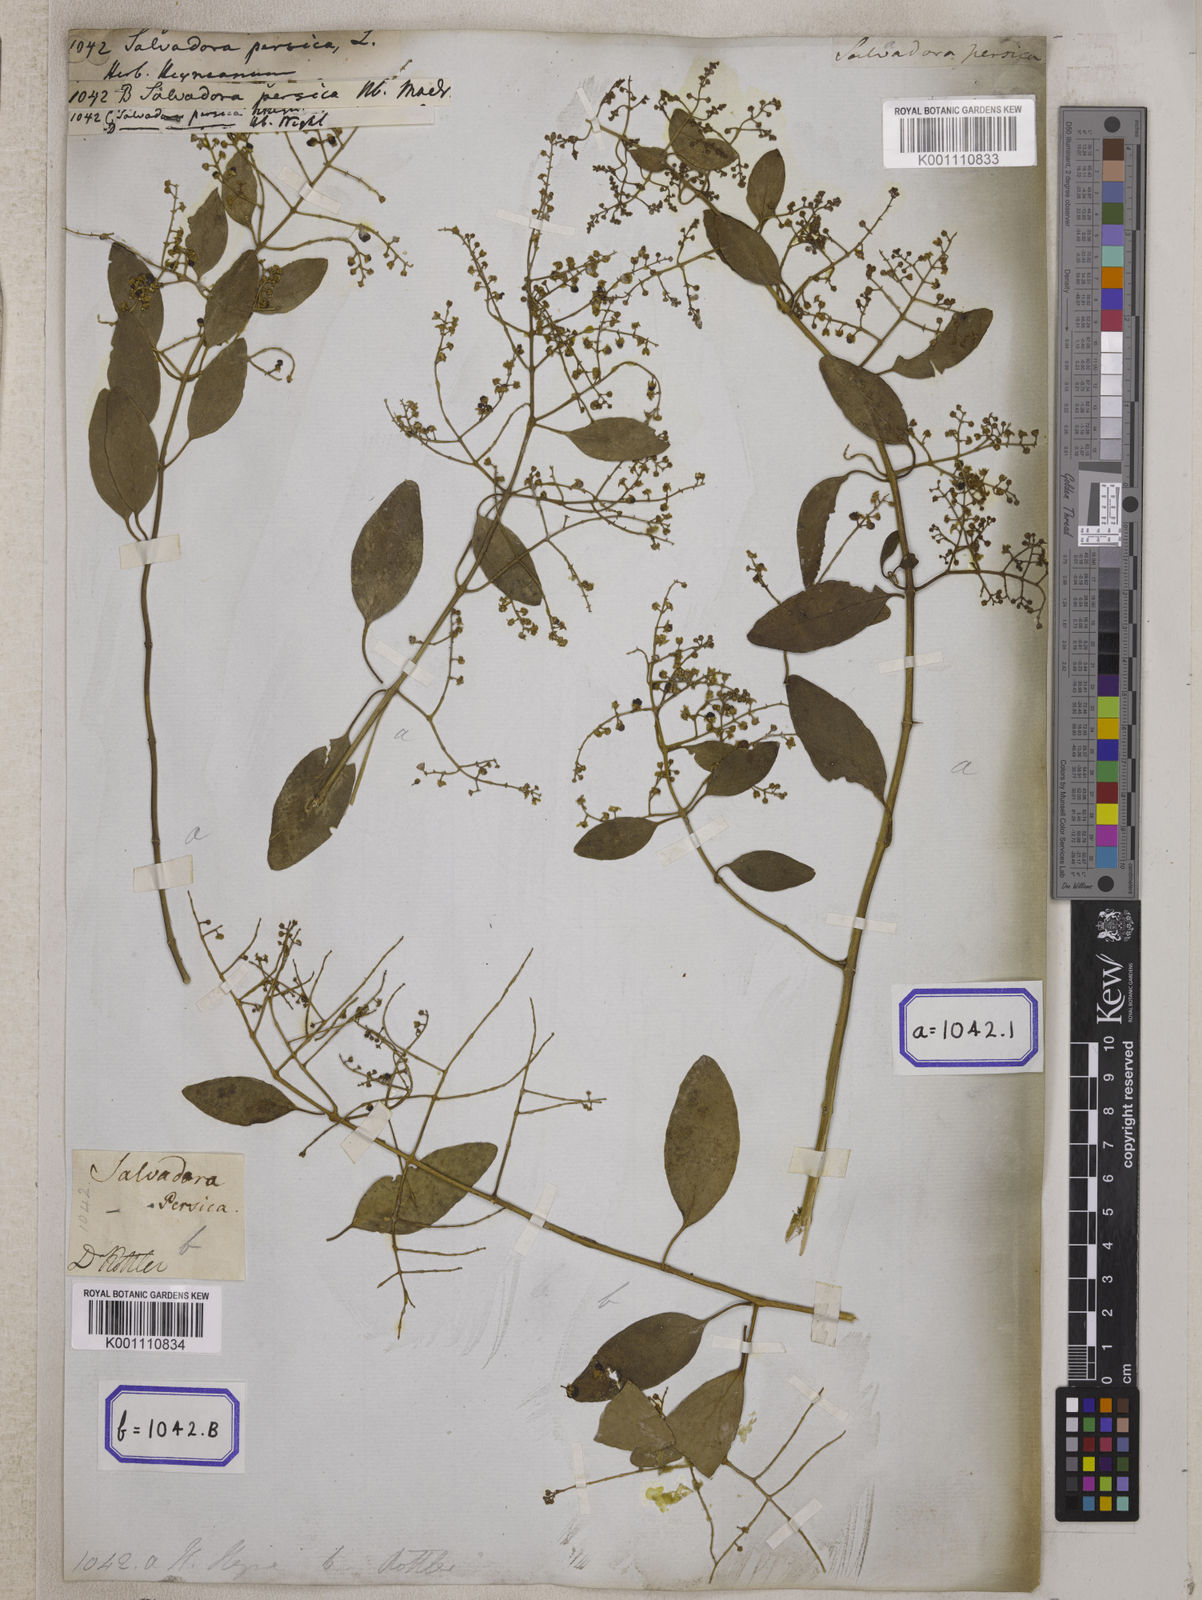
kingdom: Plantae
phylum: Tracheophyta
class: Magnoliopsida
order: Brassicales
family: Salvadoraceae
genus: Salvadora
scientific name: Salvadora persica
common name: Toothbrushtree
